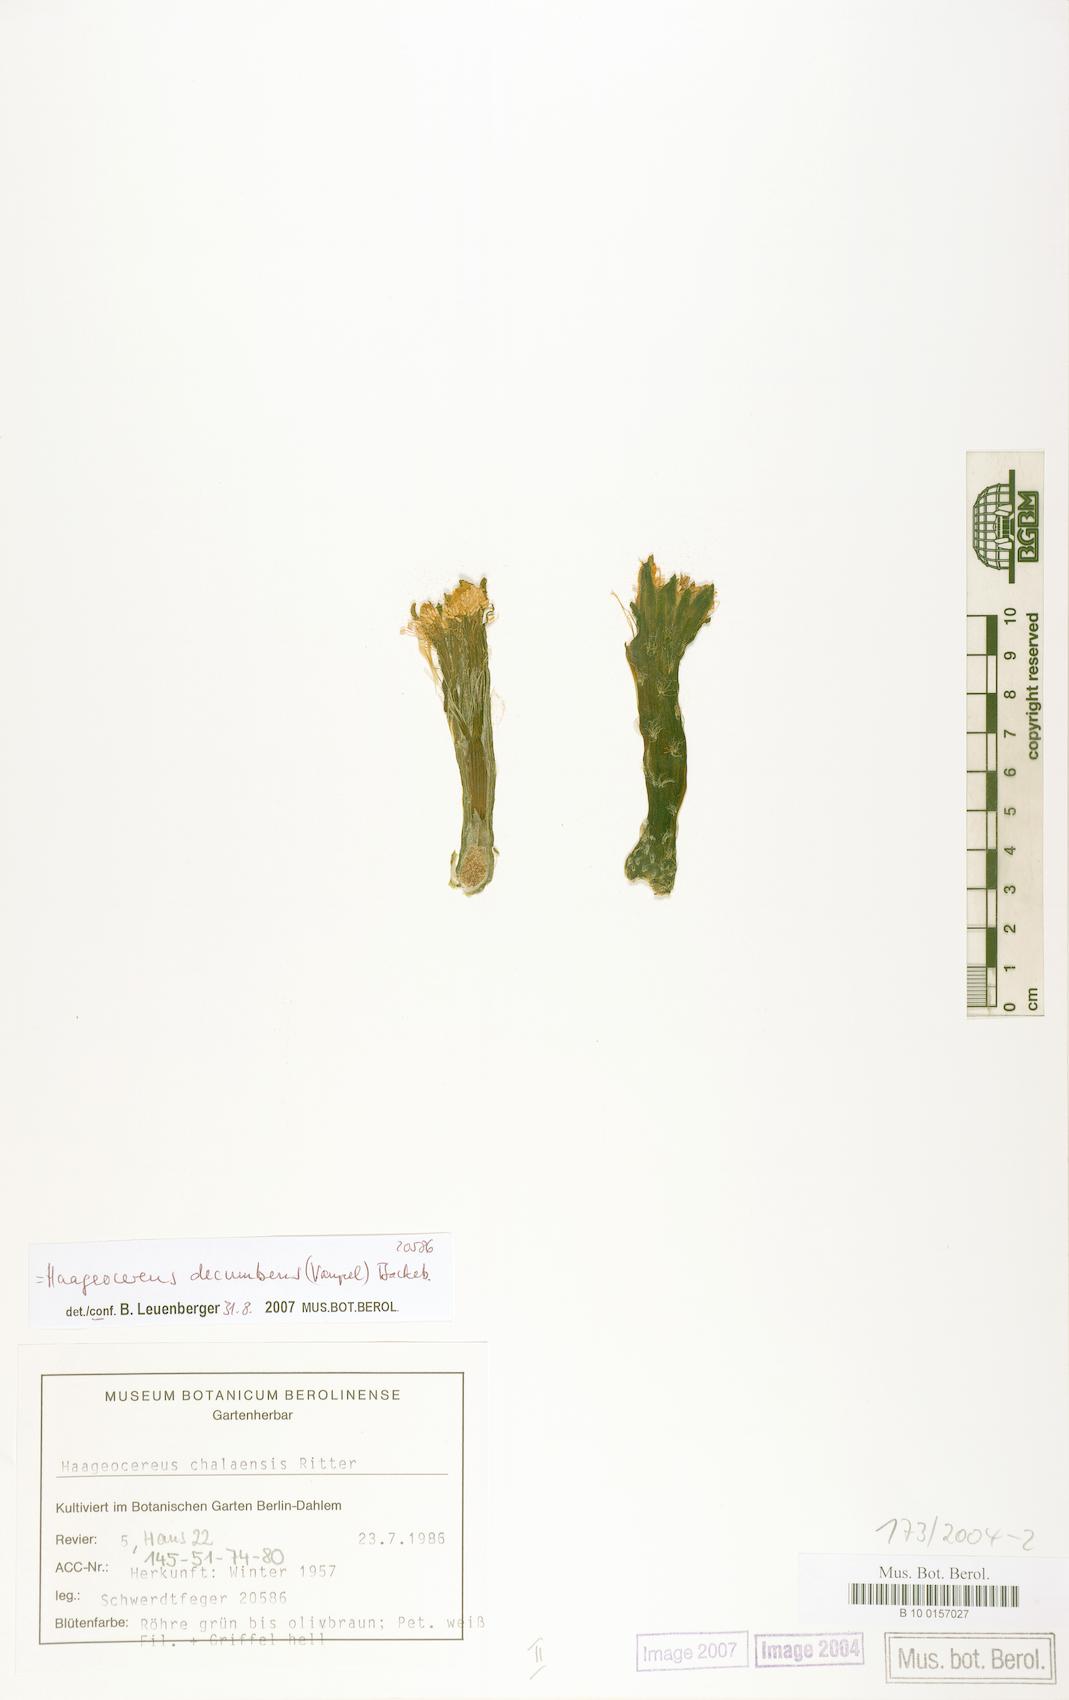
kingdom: Plantae
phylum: Tracheophyta
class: Magnoliopsida
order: Caryophyllales
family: Cactaceae
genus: Haageocereus
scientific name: Haageocereus decumbens
